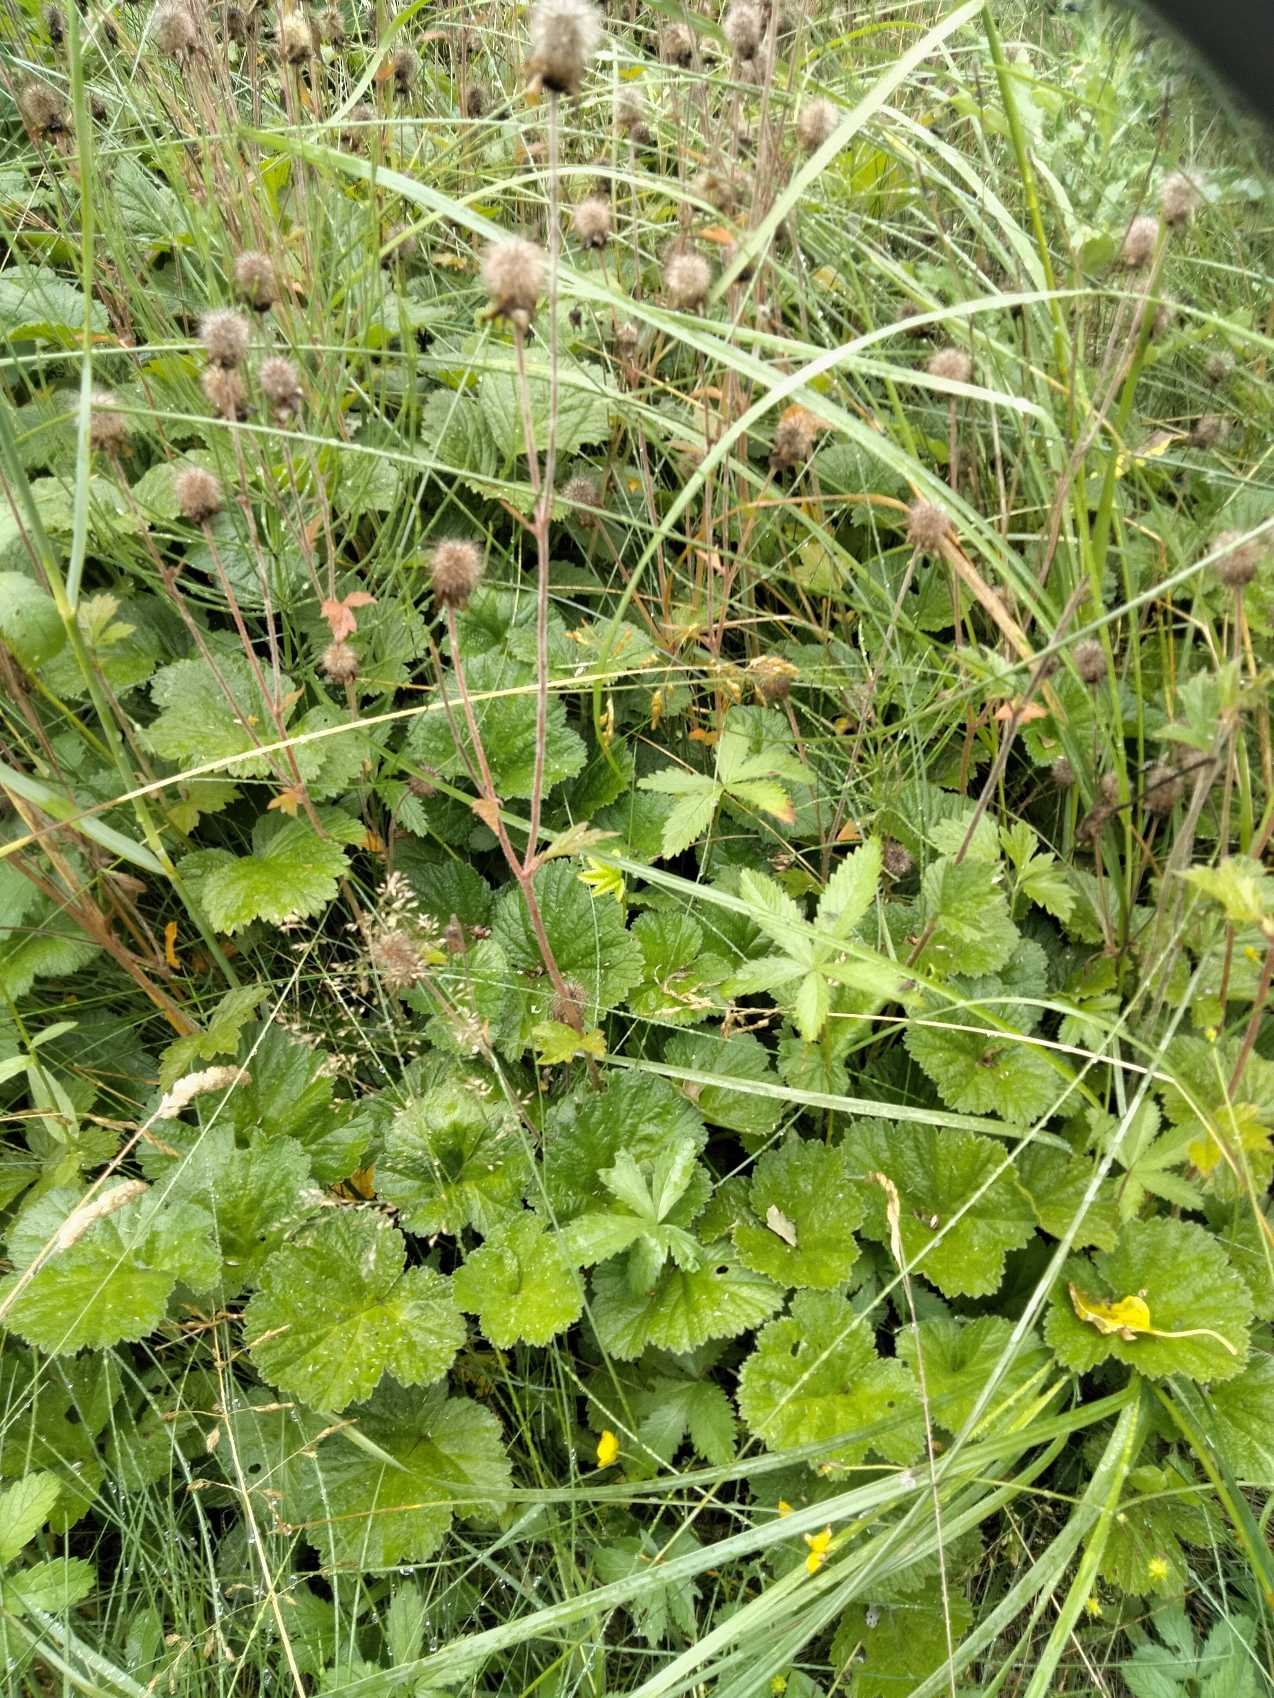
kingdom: Plantae
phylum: Tracheophyta
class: Magnoliopsida
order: Rosales
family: Rosaceae
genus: Geum
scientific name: Geum urbanum
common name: Feber-nellikerod
